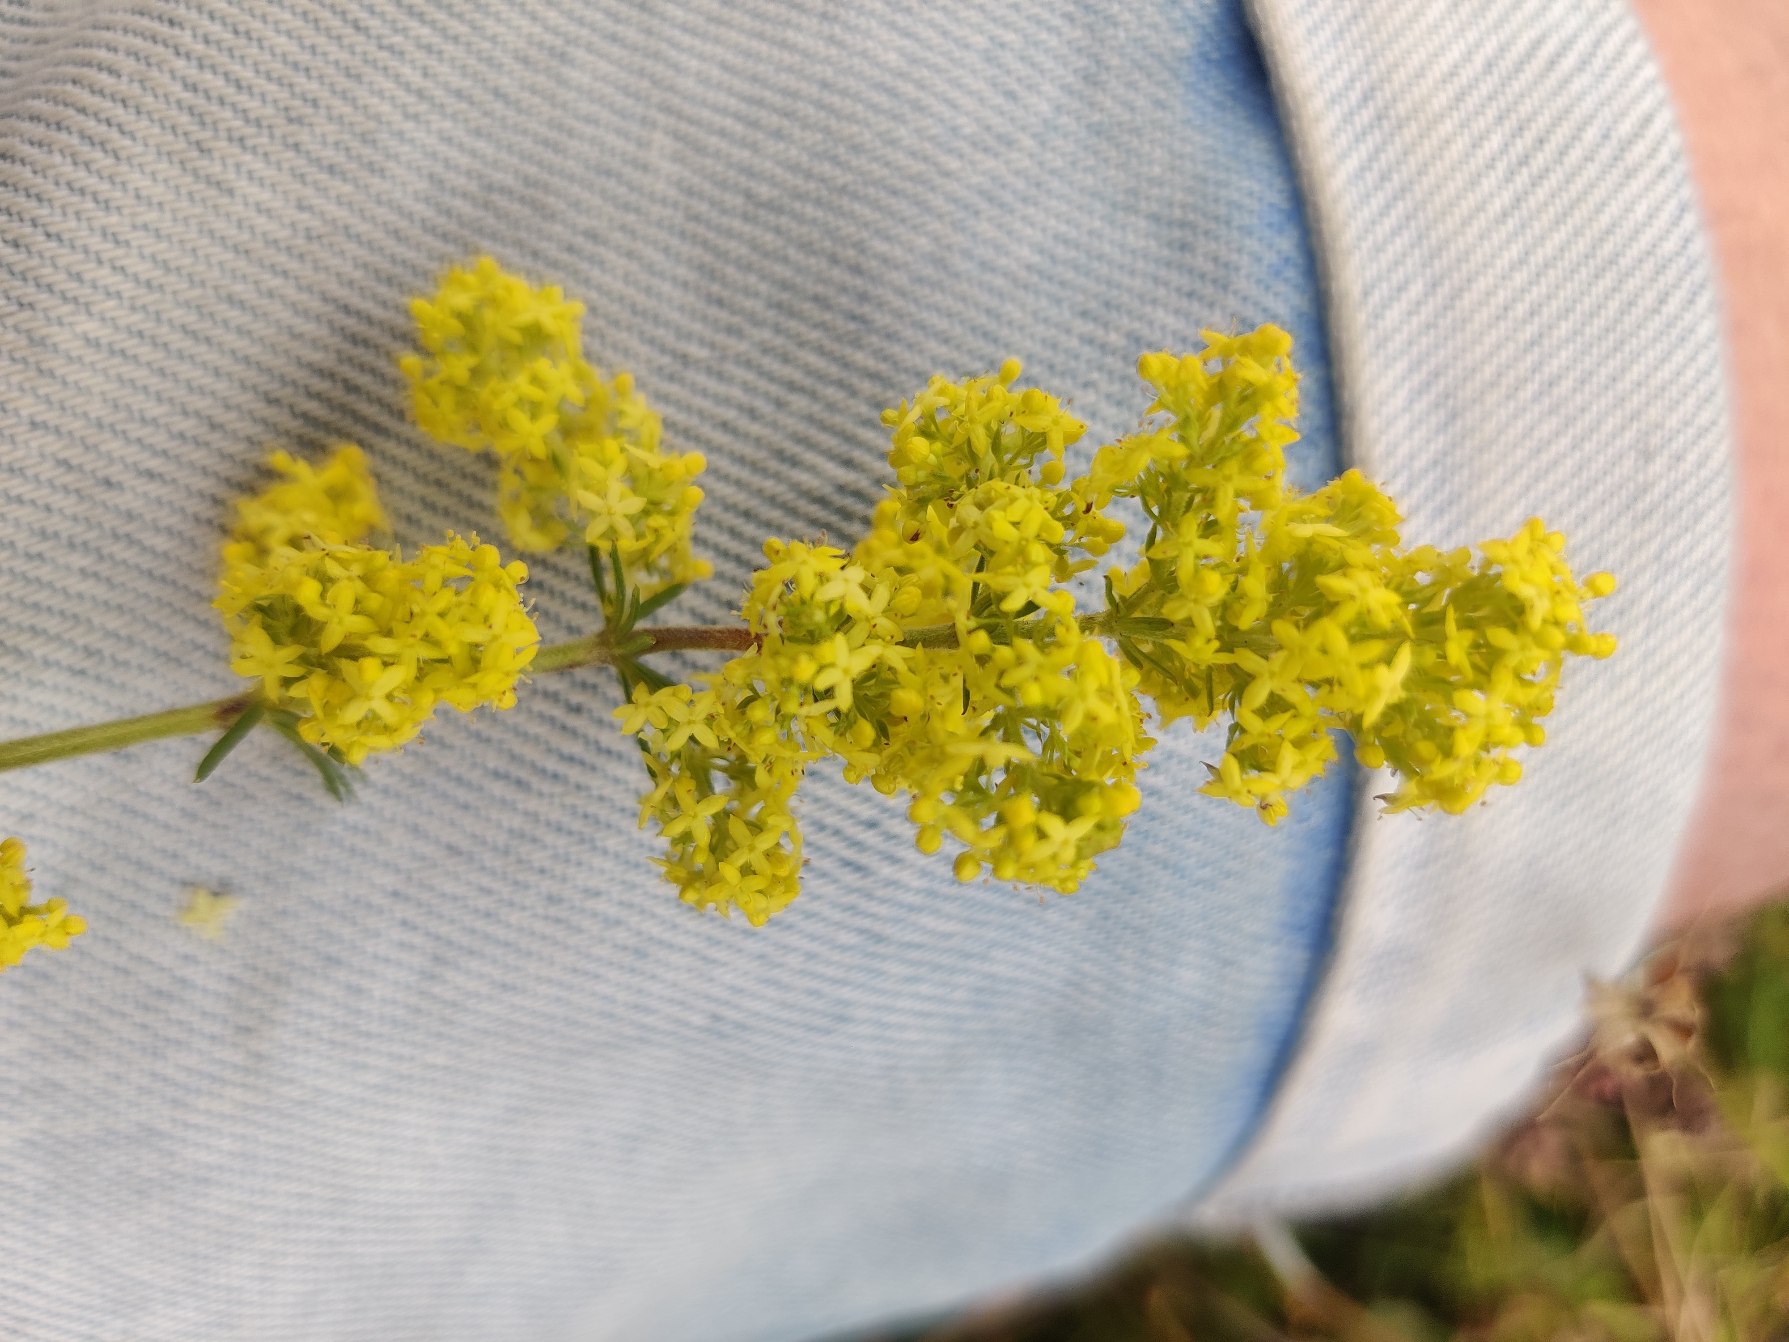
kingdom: Plantae
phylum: Tracheophyta
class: Magnoliopsida
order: Gentianales
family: Rubiaceae
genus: Galium
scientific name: Galium verum
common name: Gul snerre
